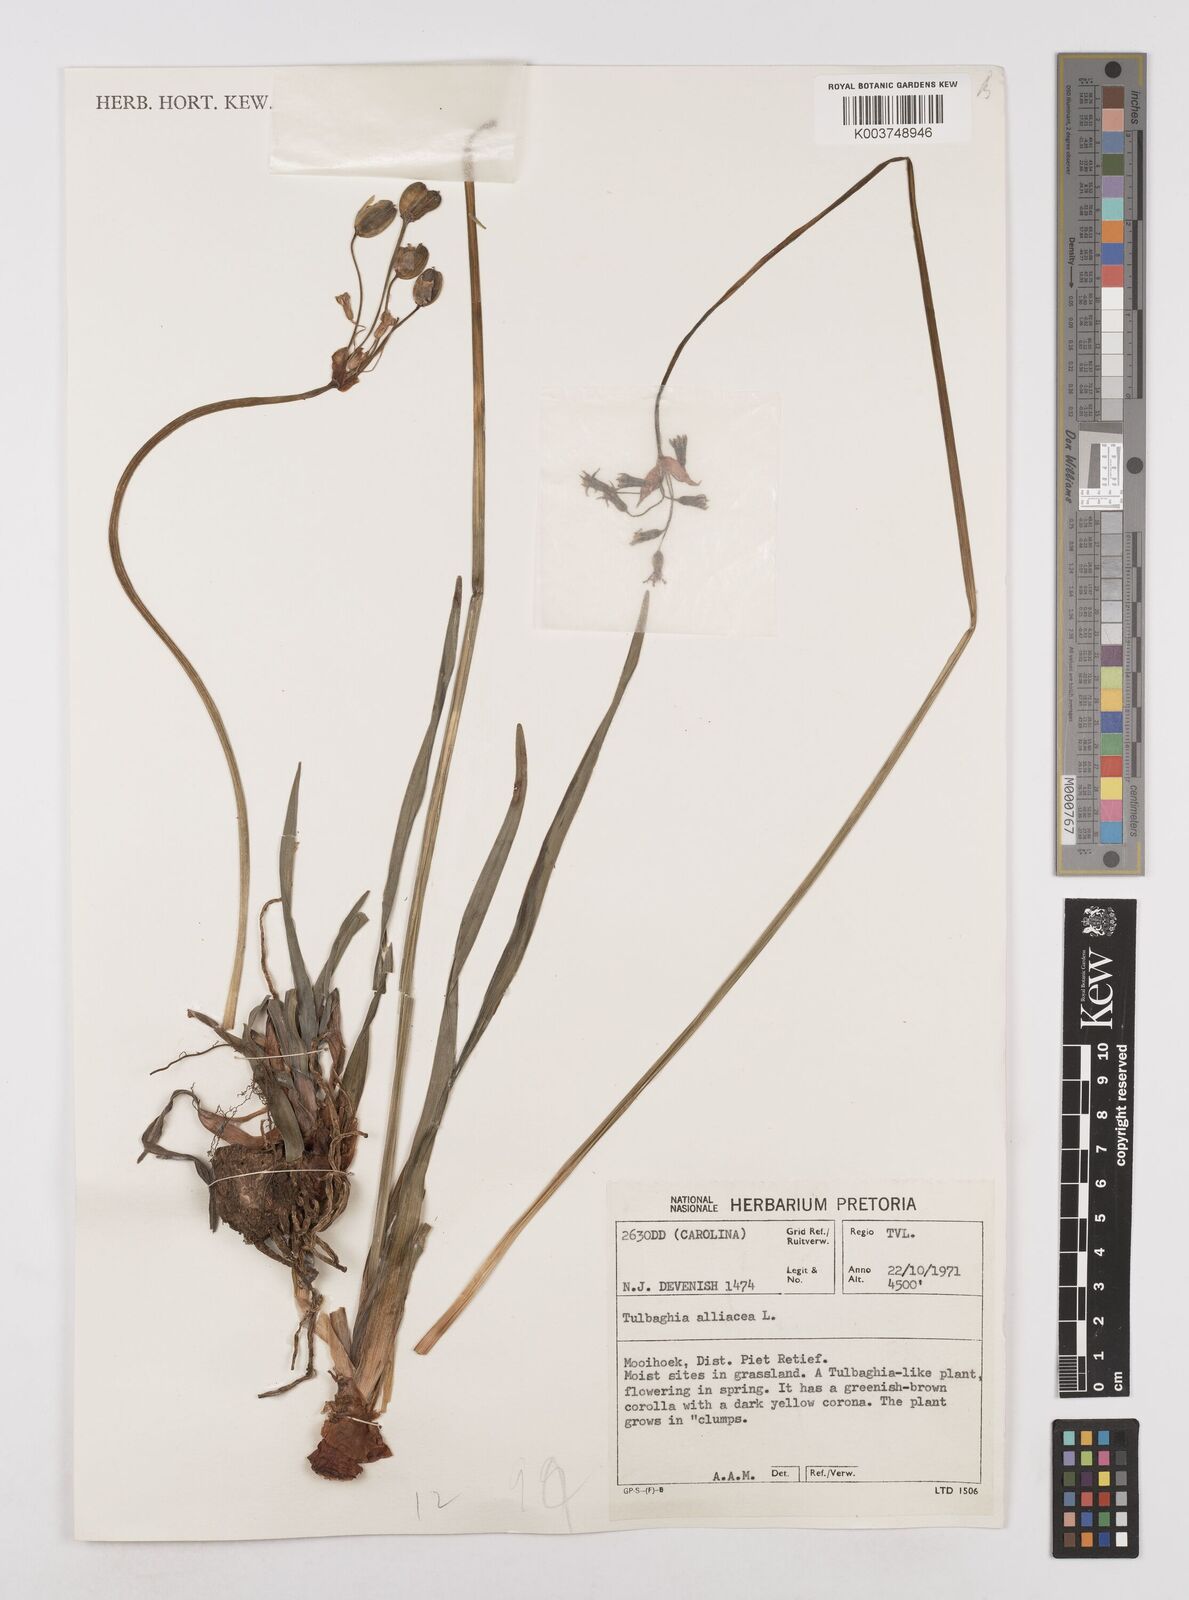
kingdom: Plantae
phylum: Tracheophyta
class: Liliopsida
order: Asparagales
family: Amaryllidaceae
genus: Tulbaghia
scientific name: Tulbaghia alliacea
